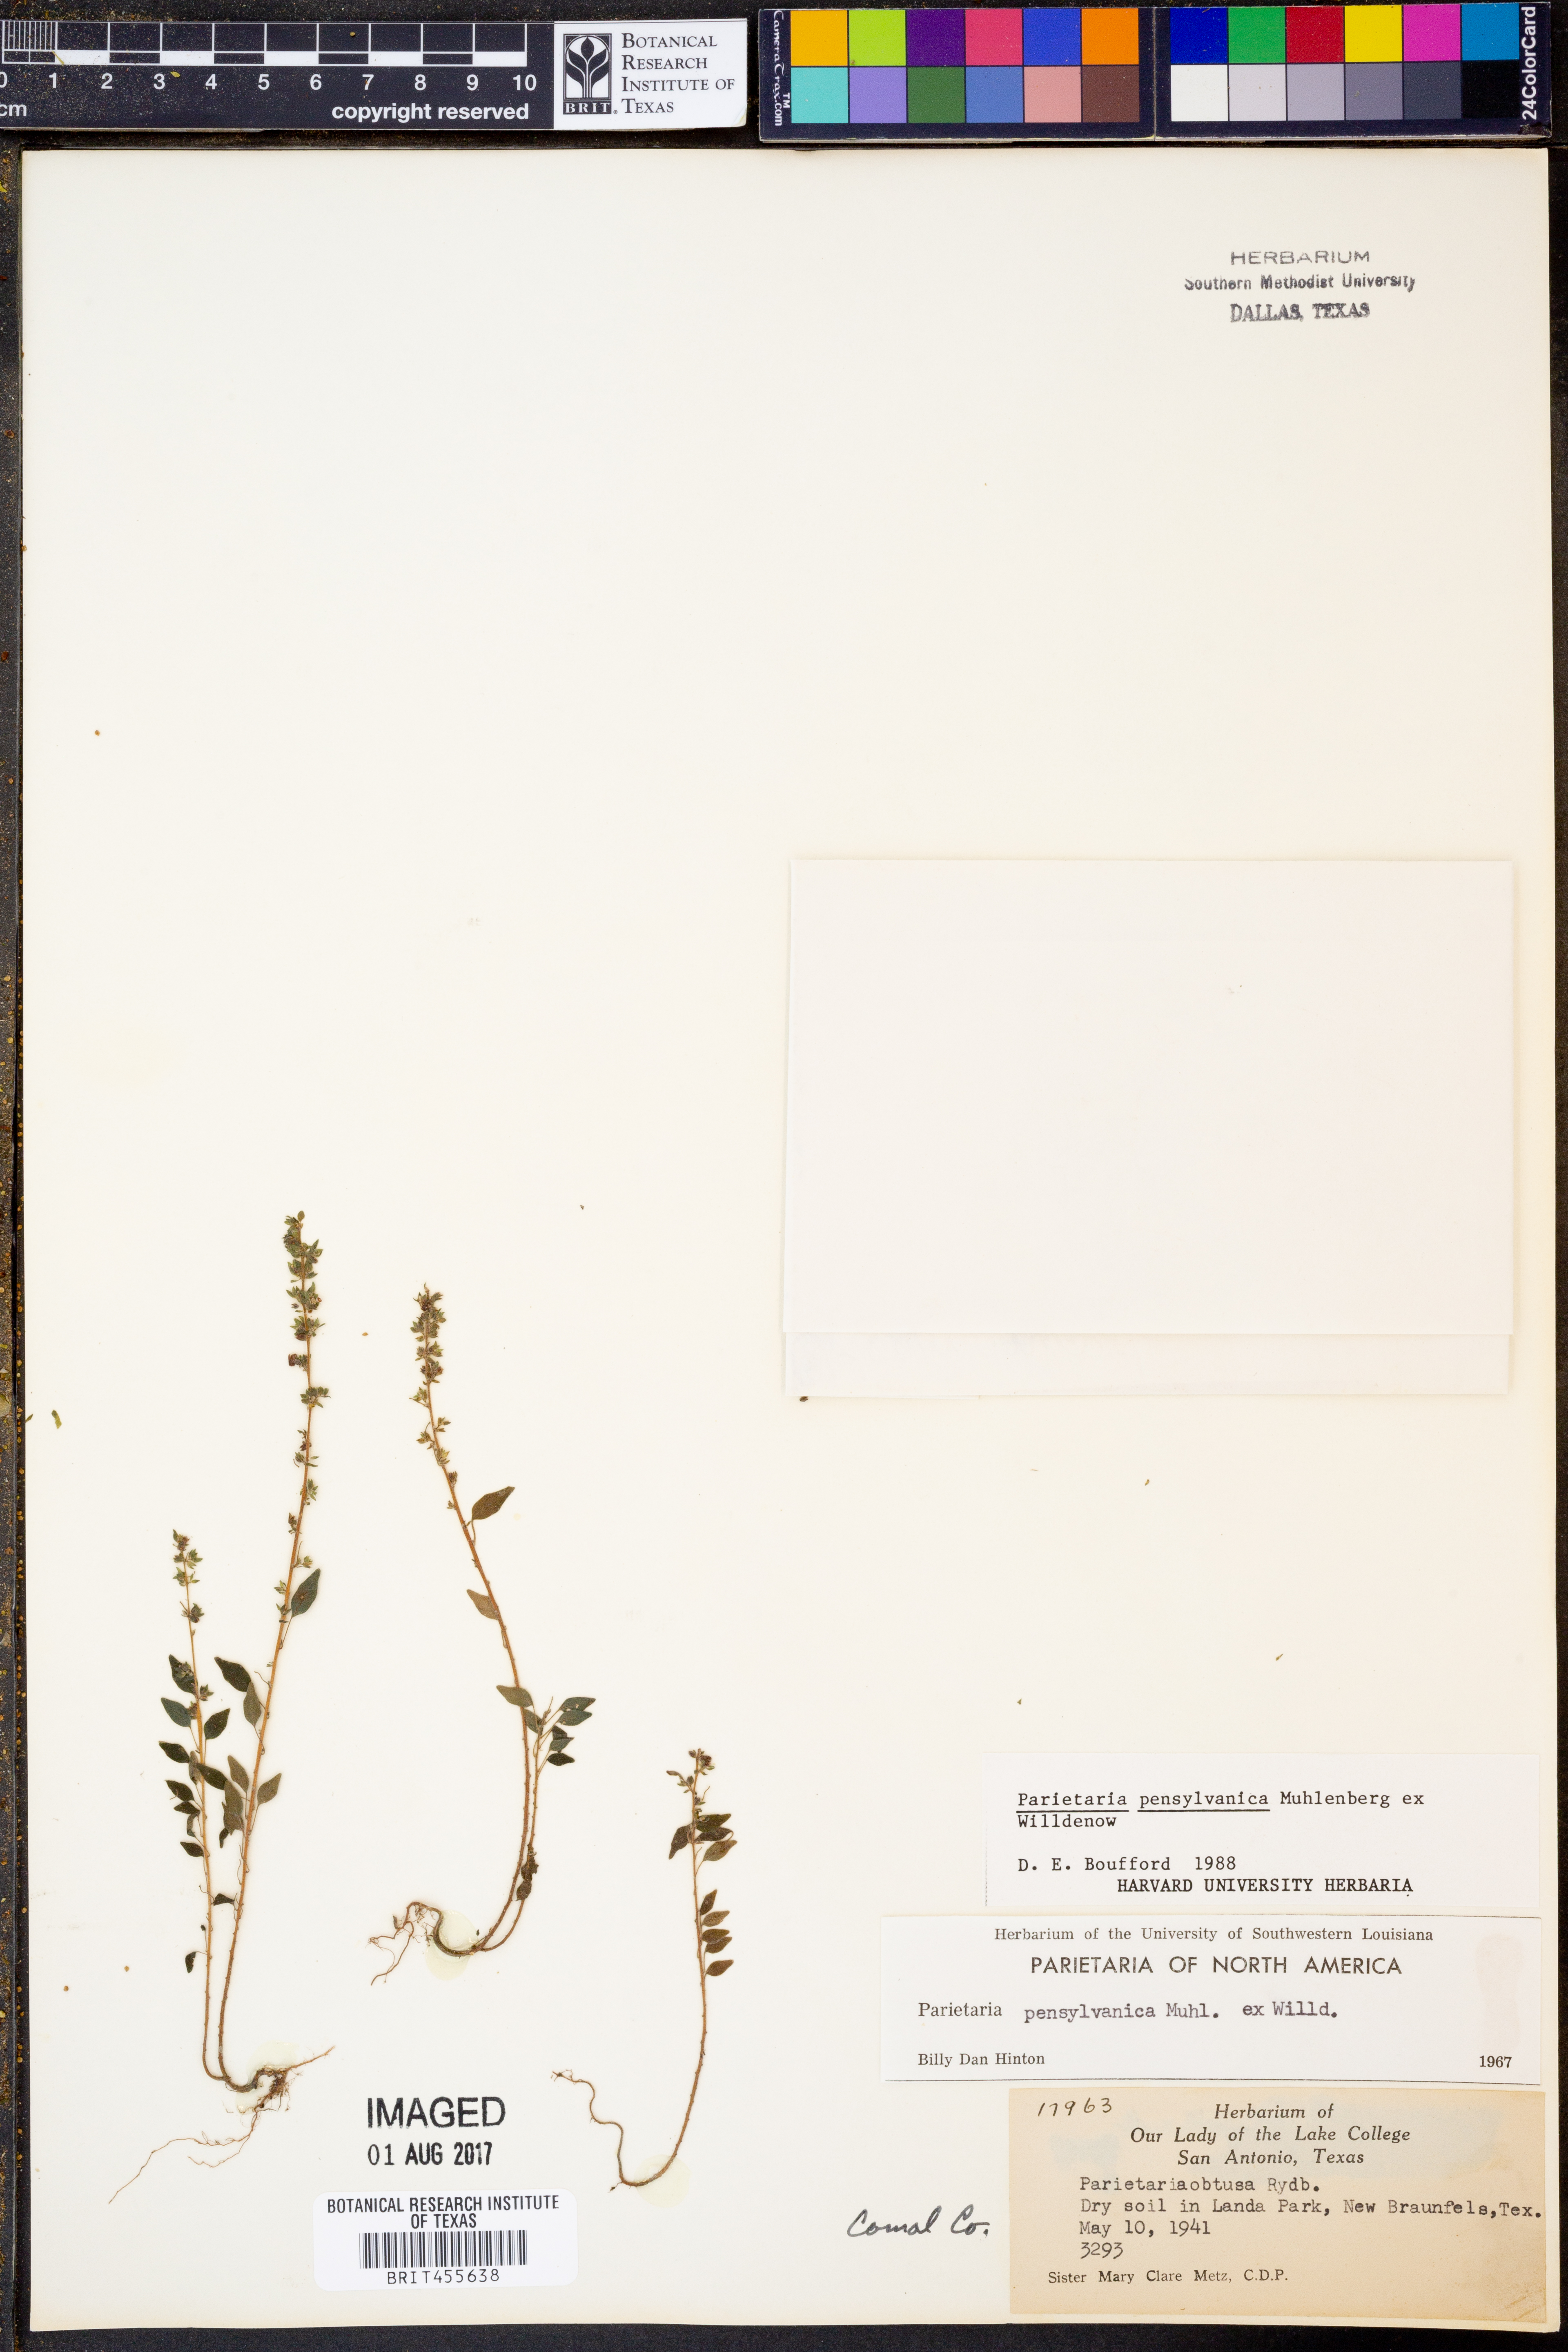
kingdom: Plantae
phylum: Tracheophyta
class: Magnoliopsida
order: Rosales
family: Urticaceae
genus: Parietaria
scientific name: Parietaria pensylvanica
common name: Pennsylvania pellitory
